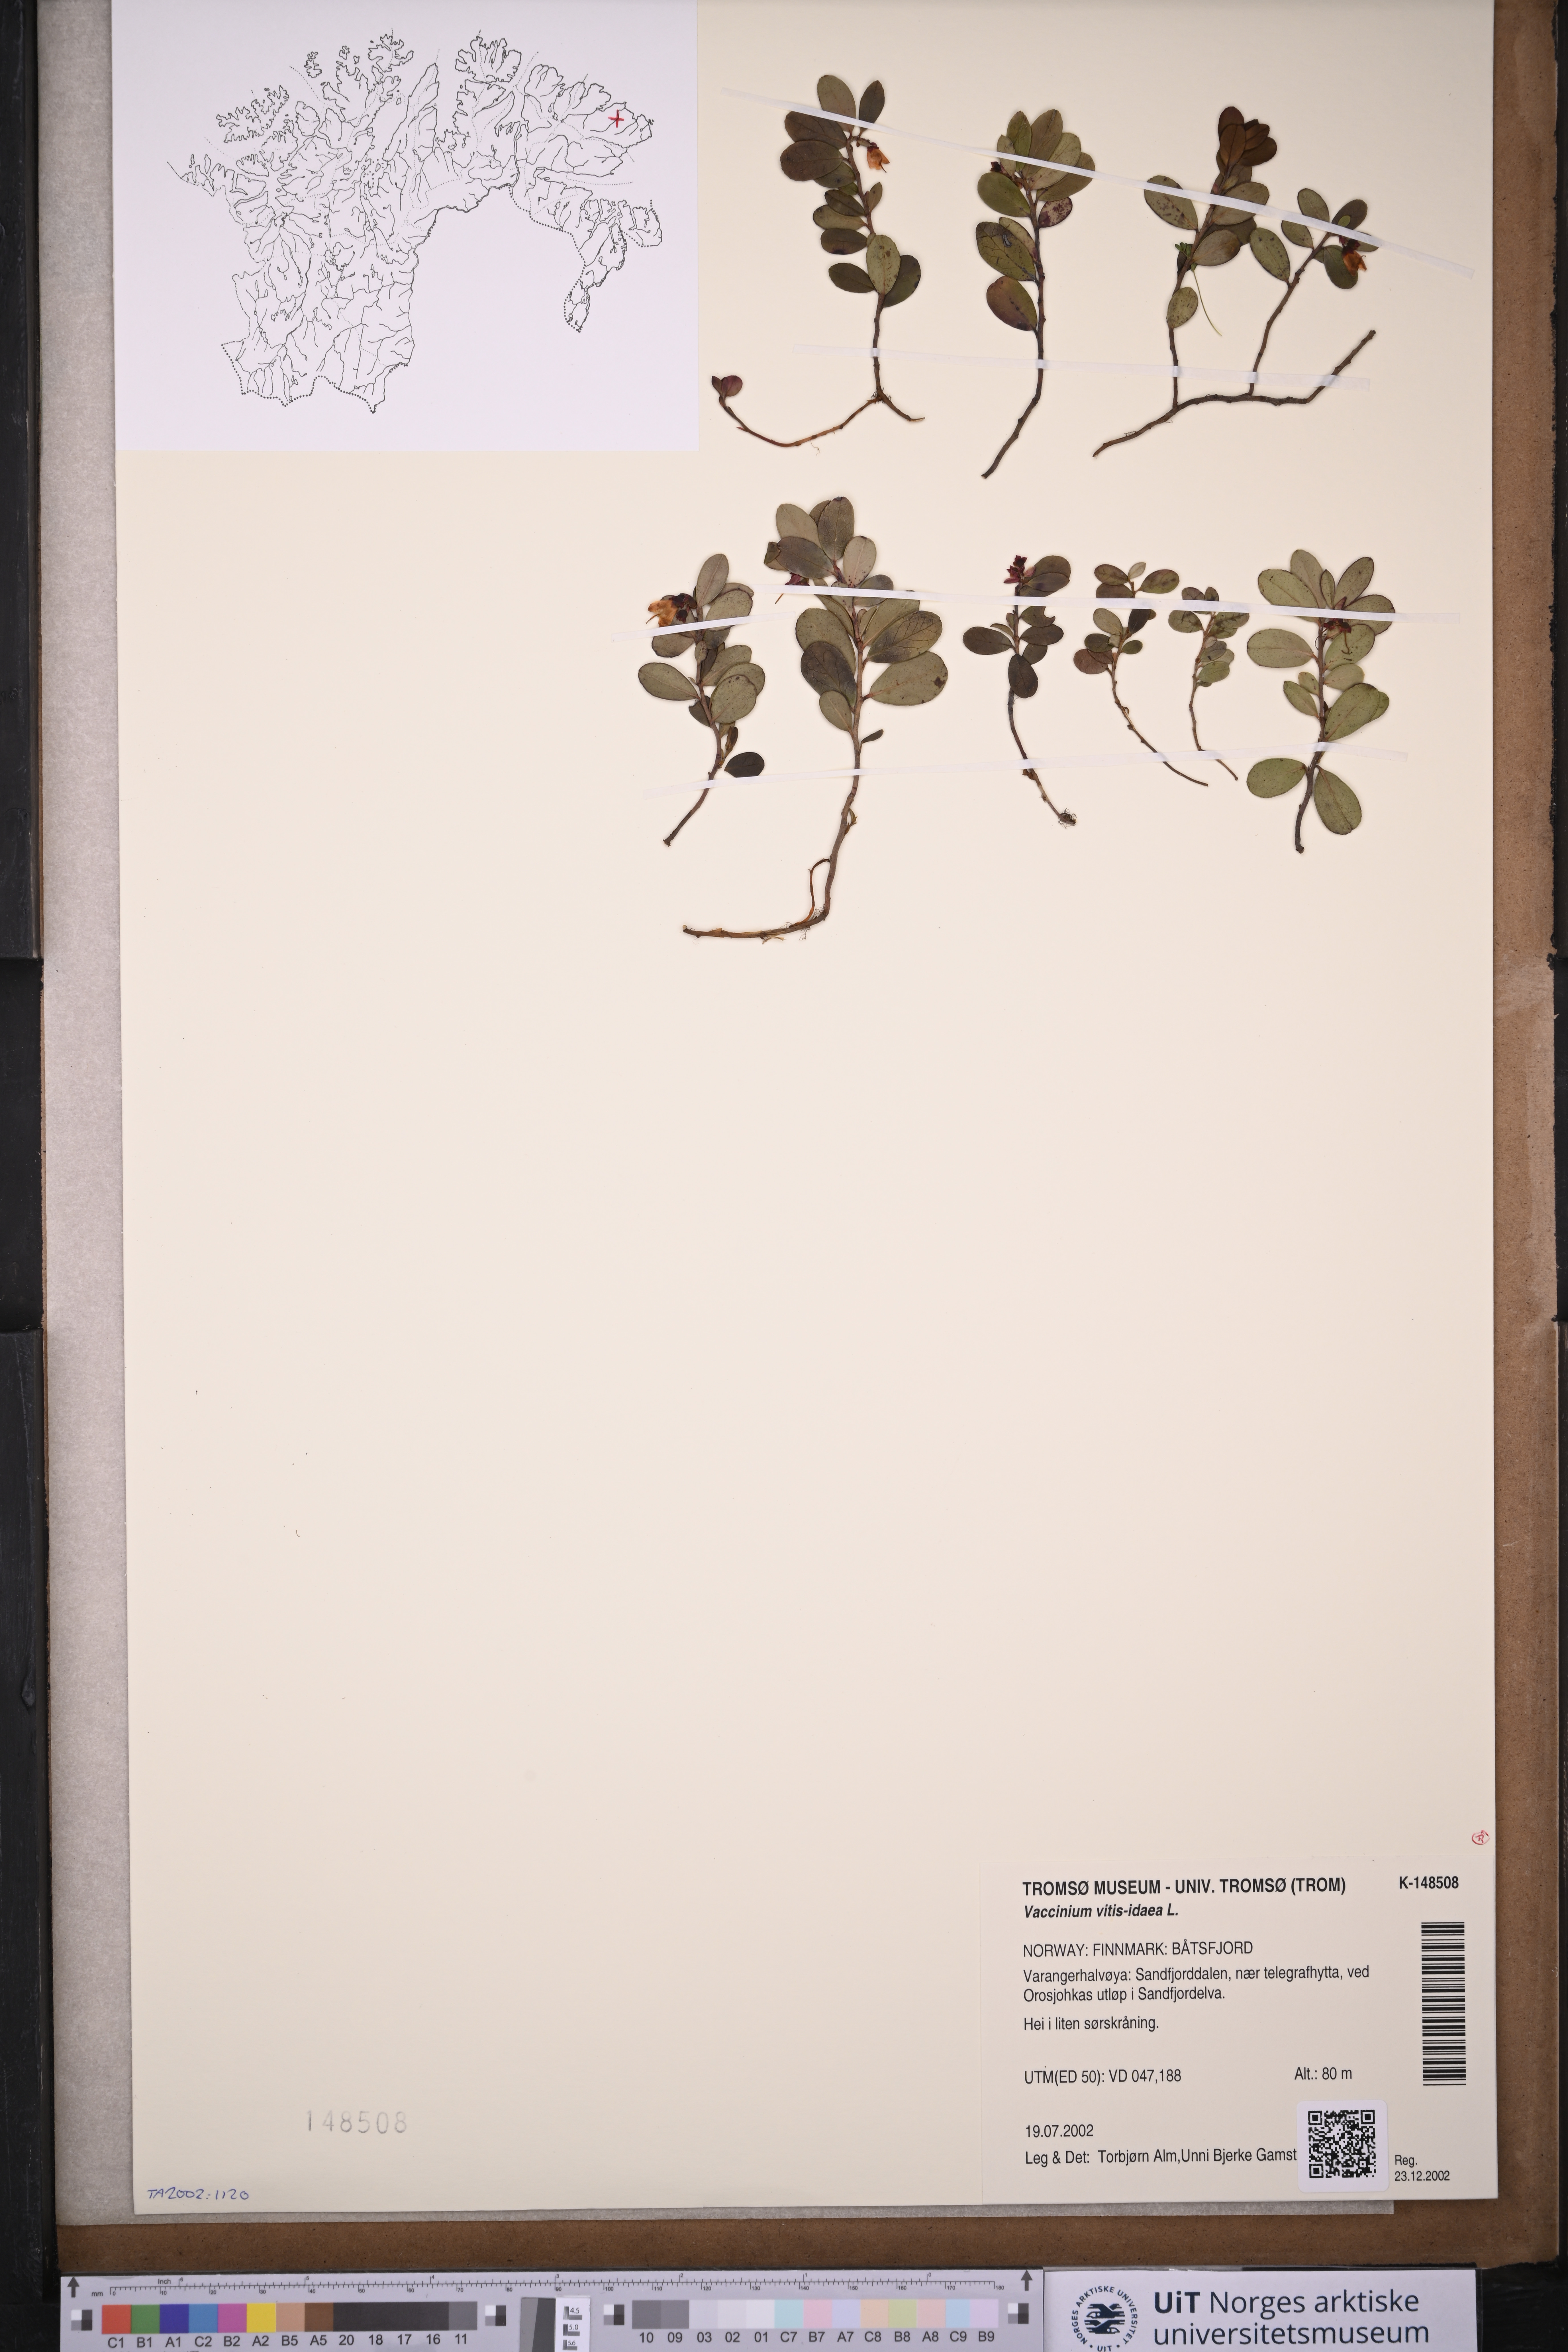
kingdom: Plantae
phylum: Tracheophyta
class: Magnoliopsida
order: Ericales
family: Ericaceae
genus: Vaccinium
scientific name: Vaccinium vitis-idaea
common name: Cowberry
